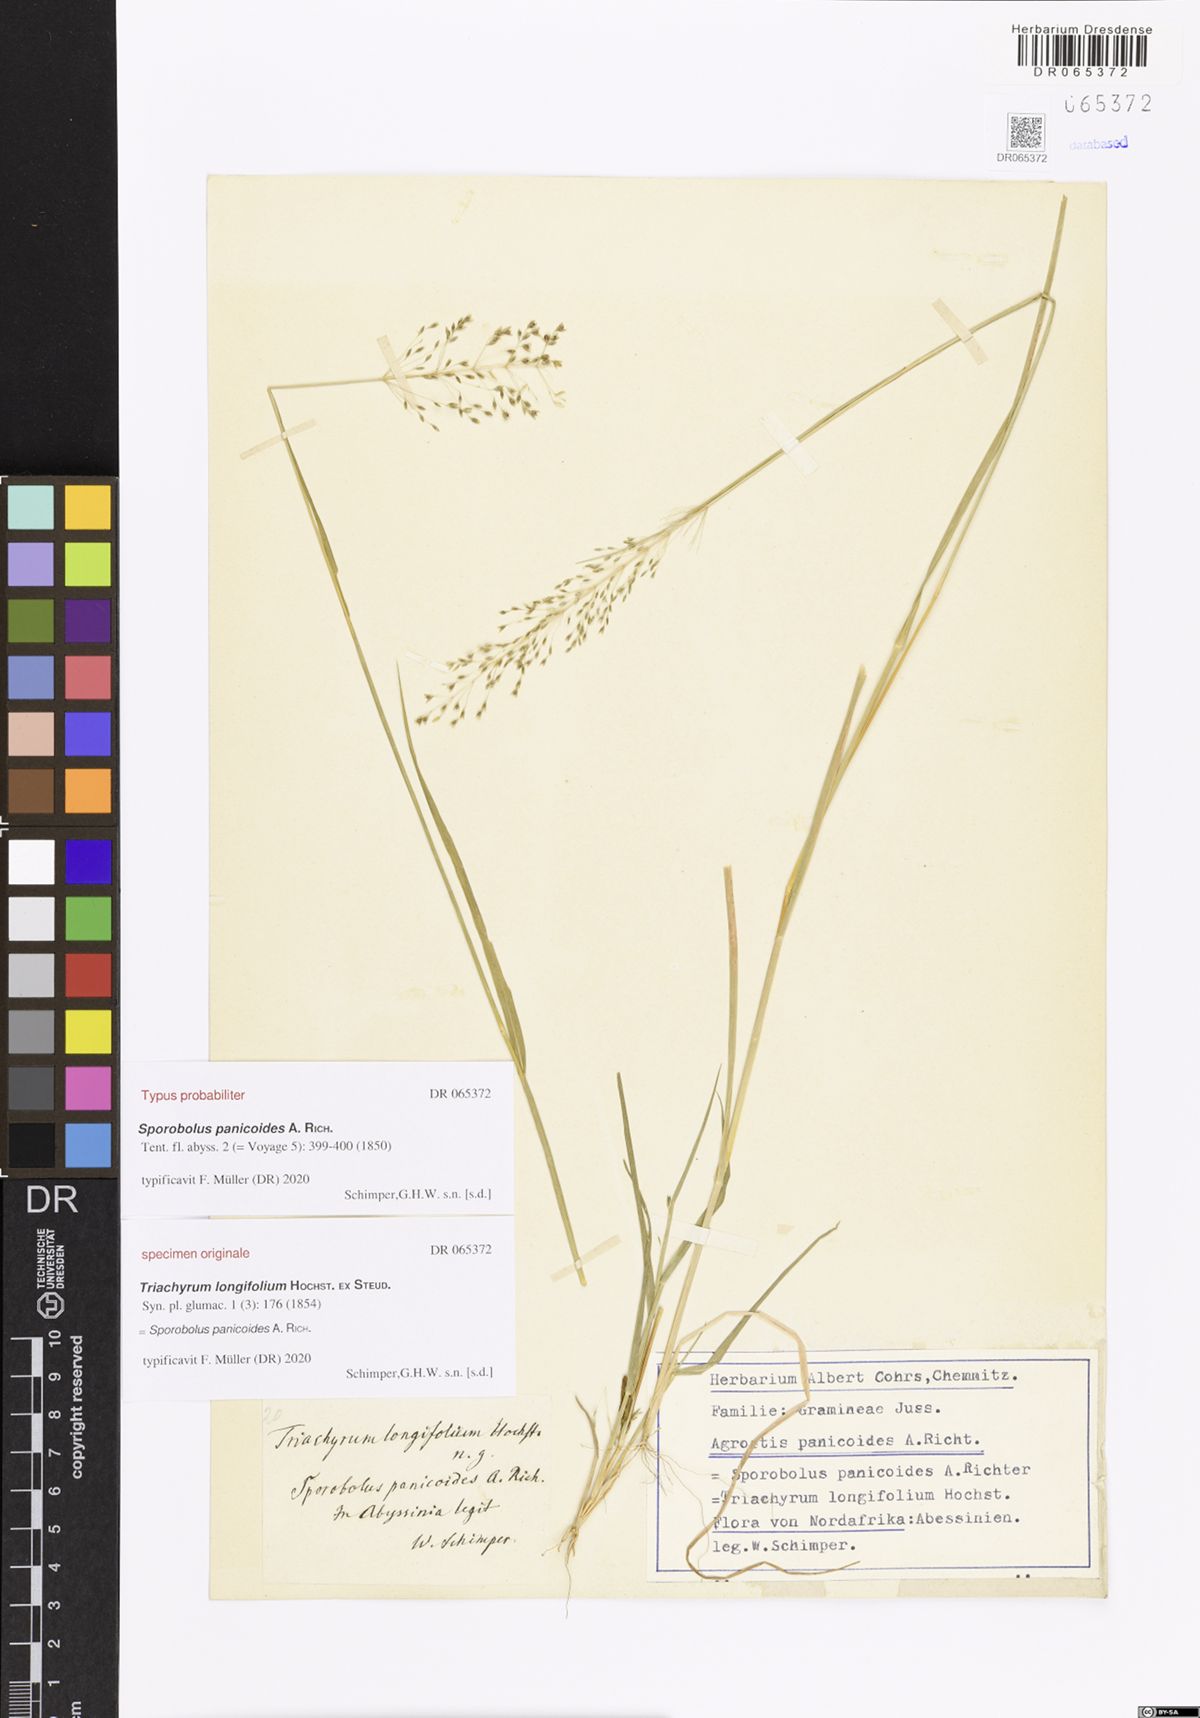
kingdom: Plantae
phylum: Tracheophyta
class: Liliopsida
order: Poales
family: Poaceae
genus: Sporobolus
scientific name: Sporobolus panicoides
